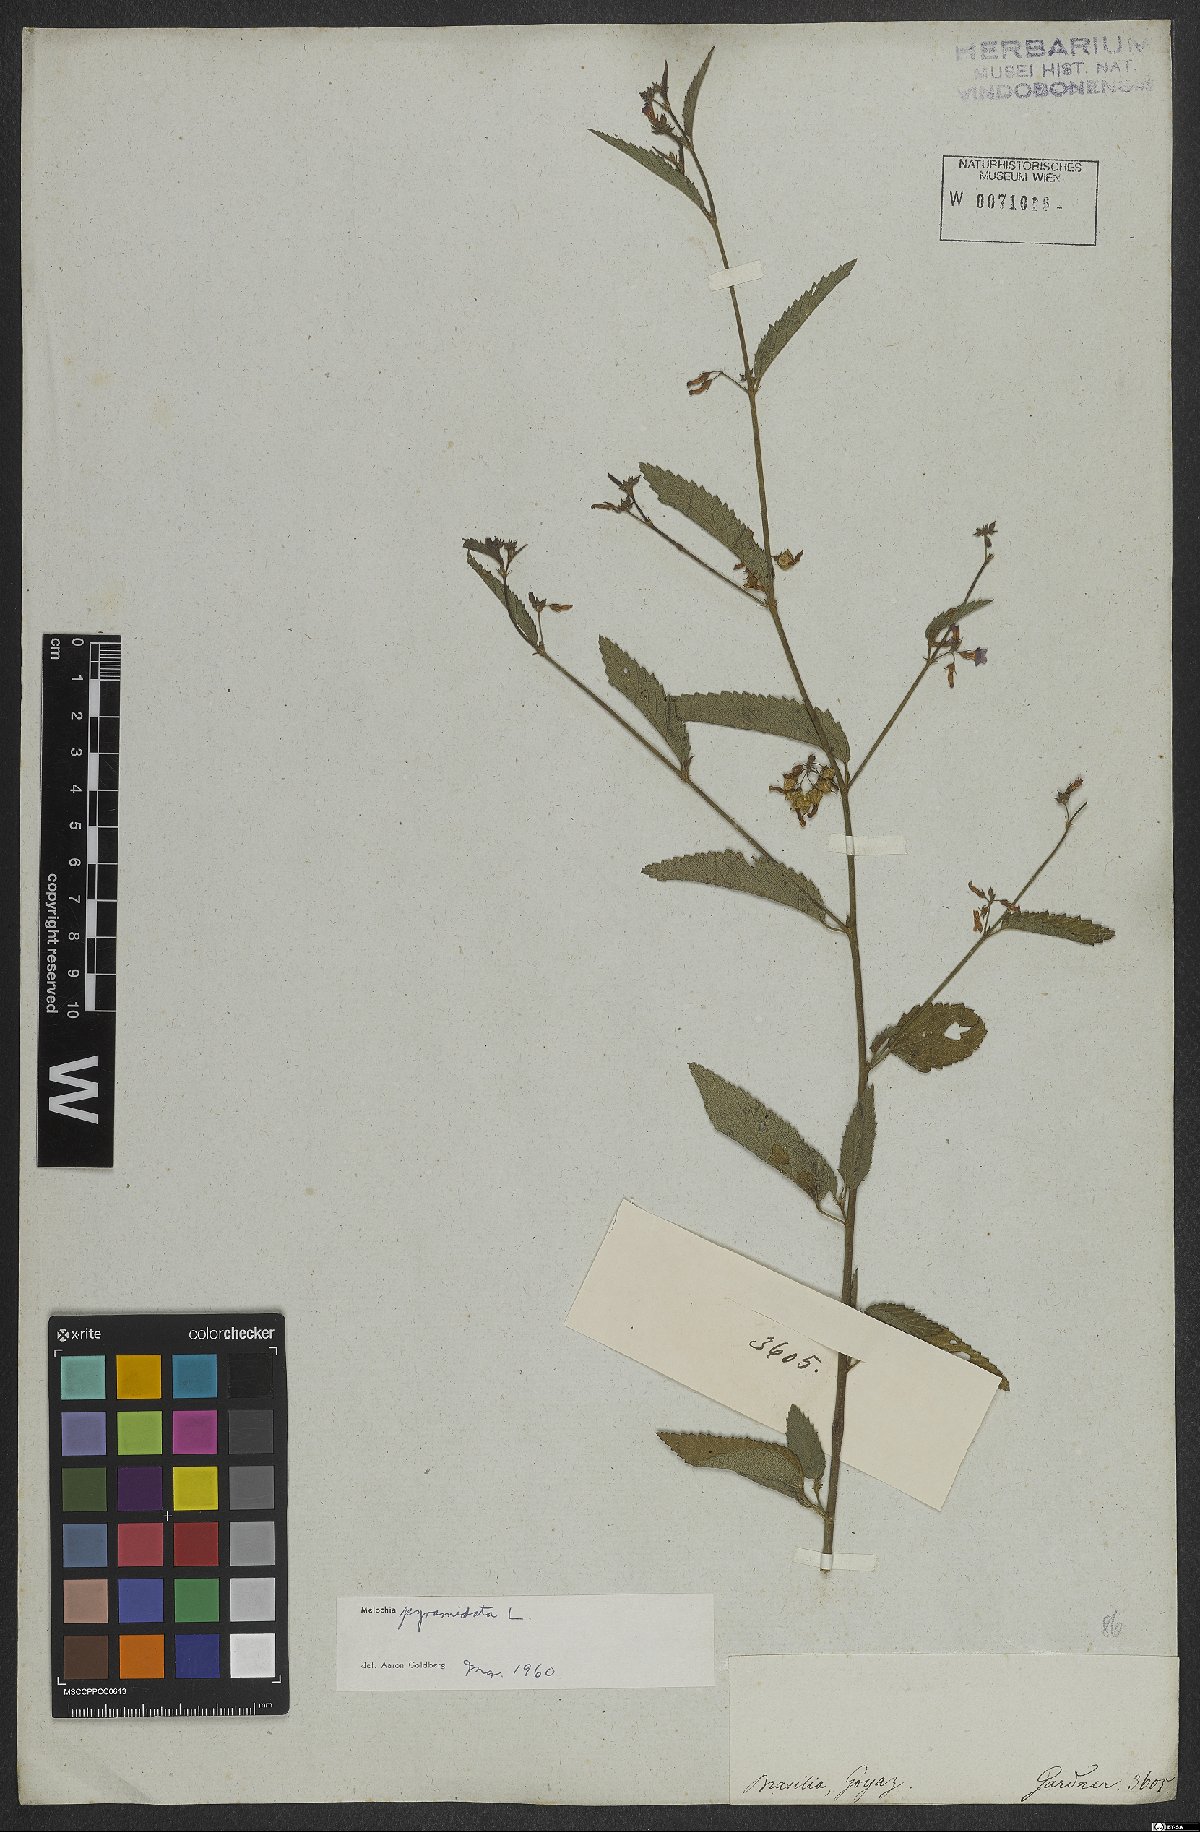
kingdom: Plantae
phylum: Tracheophyta
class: Magnoliopsida
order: Malvales
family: Malvaceae
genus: Melochia
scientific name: Melochia pyramidata
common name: Pyramidflower
